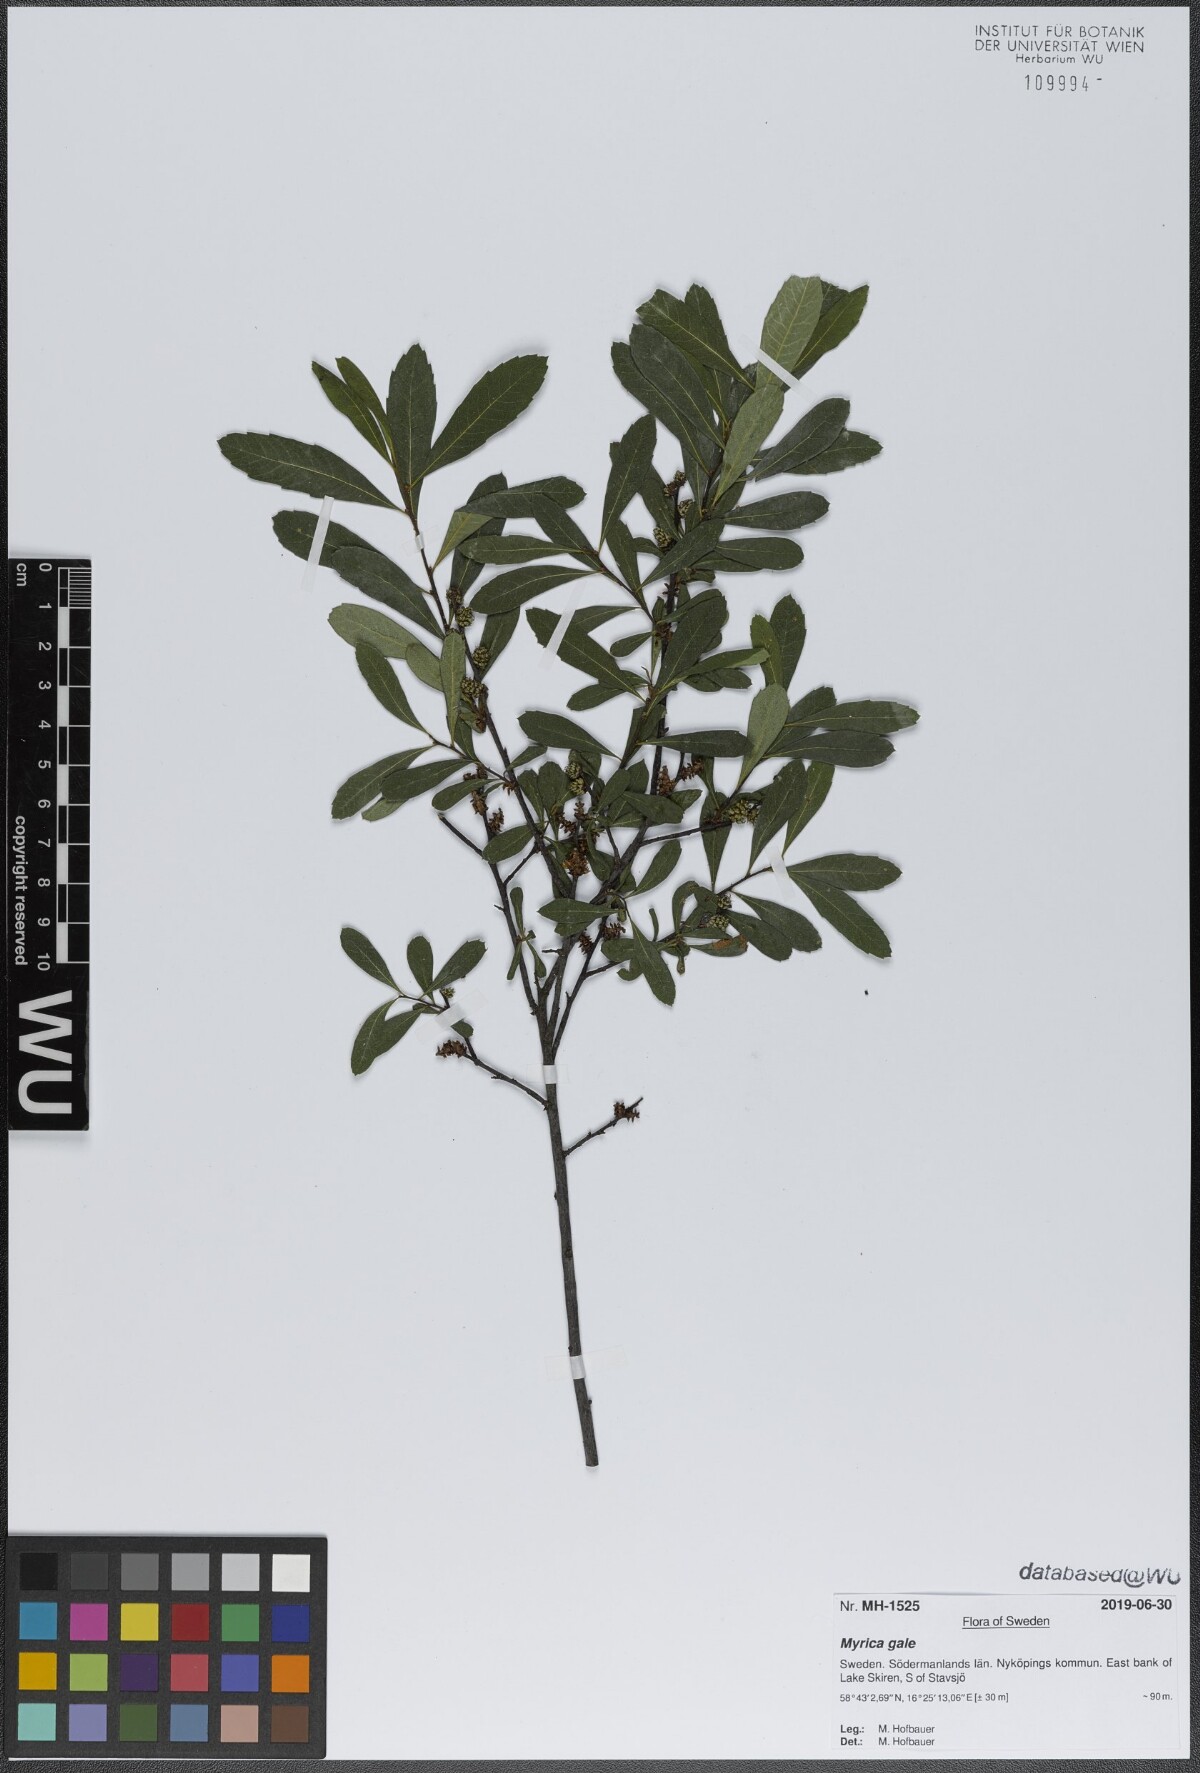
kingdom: Plantae
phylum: Tracheophyta
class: Magnoliopsida
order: Fagales
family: Myricaceae
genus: Myrica
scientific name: Myrica gale
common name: Sweet gale
